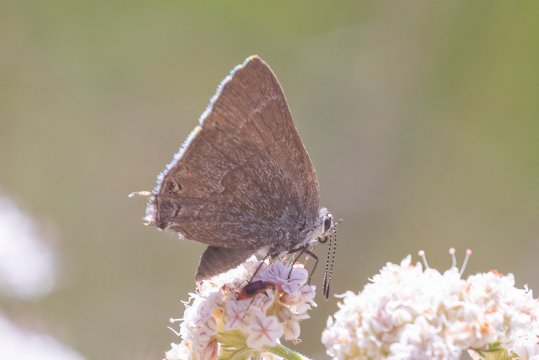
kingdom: Animalia
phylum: Arthropoda
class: Insecta
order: Lepidoptera
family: Lycaenidae
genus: Thecla
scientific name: Thecla tetra
